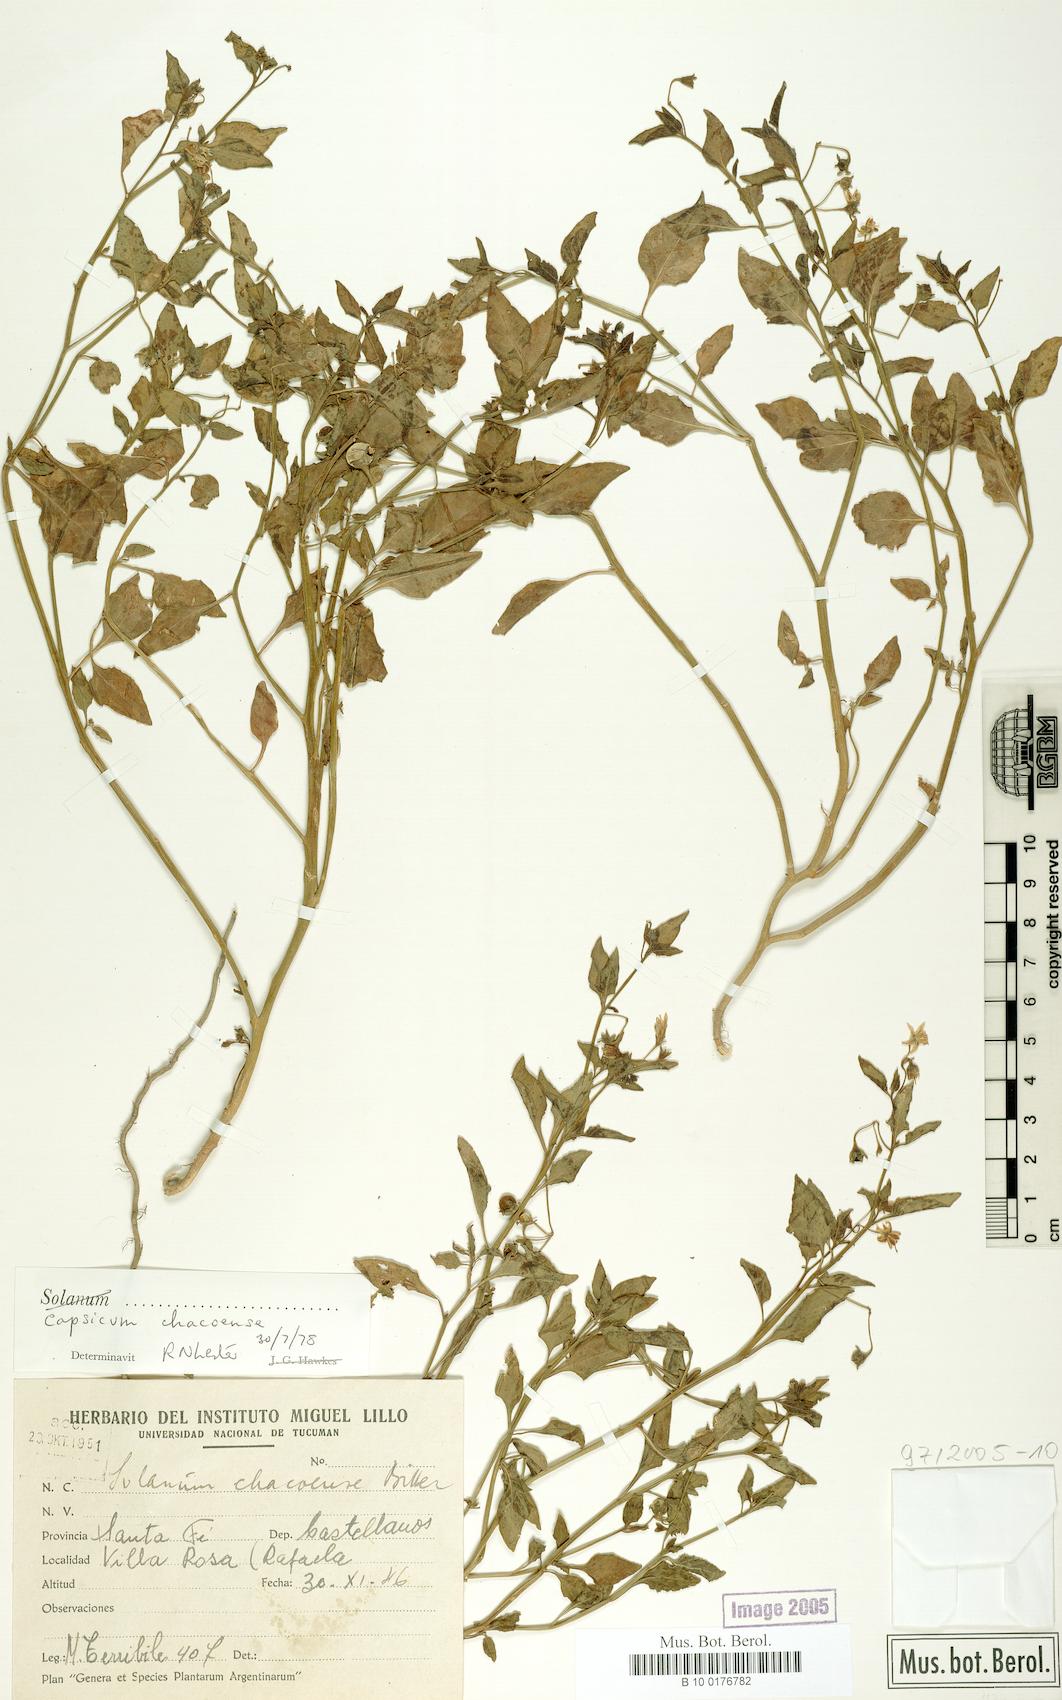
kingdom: Plantae
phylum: Tracheophyta
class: Magnoliopsida
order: Solanales
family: Solanaceae
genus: Capsicum
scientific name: Capsicum chacoense
